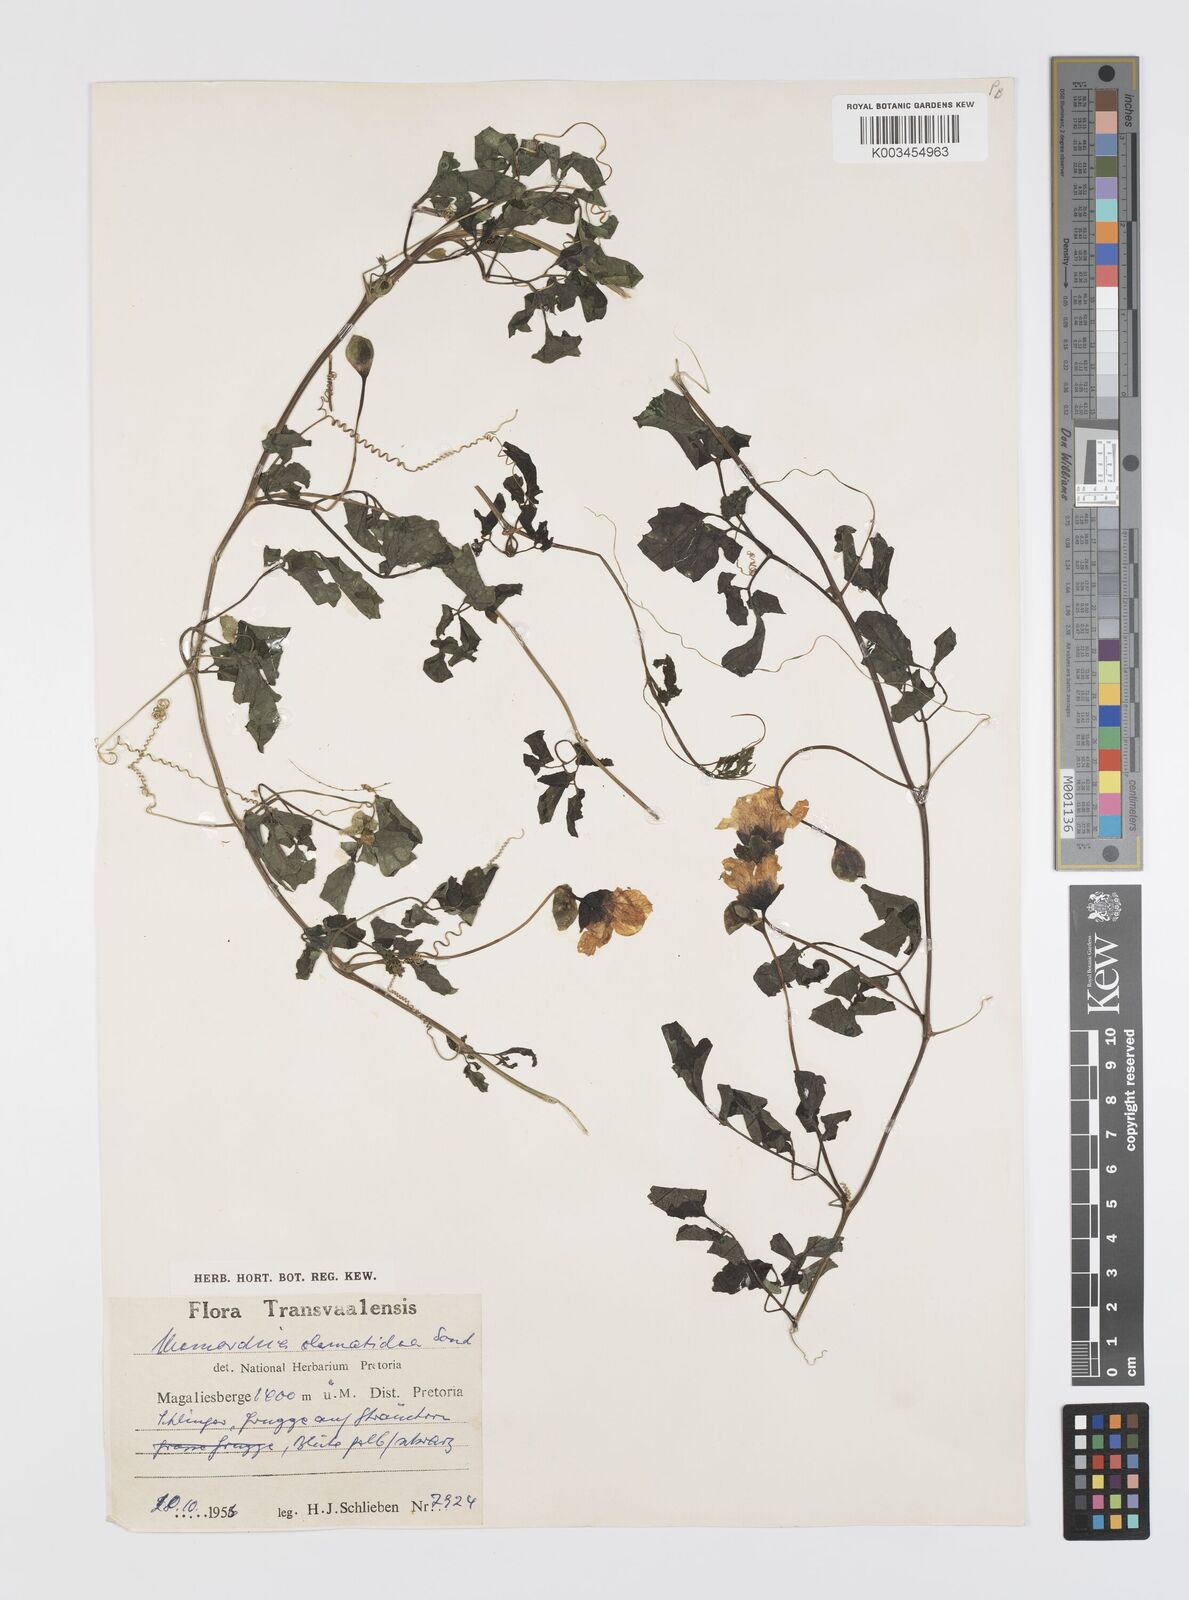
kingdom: Plantae
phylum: Tracheophyta
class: Magnoliopsida
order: Cucurbitales
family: Cucurbitaceae
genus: Momordica
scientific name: Momordica cardiospermoides
